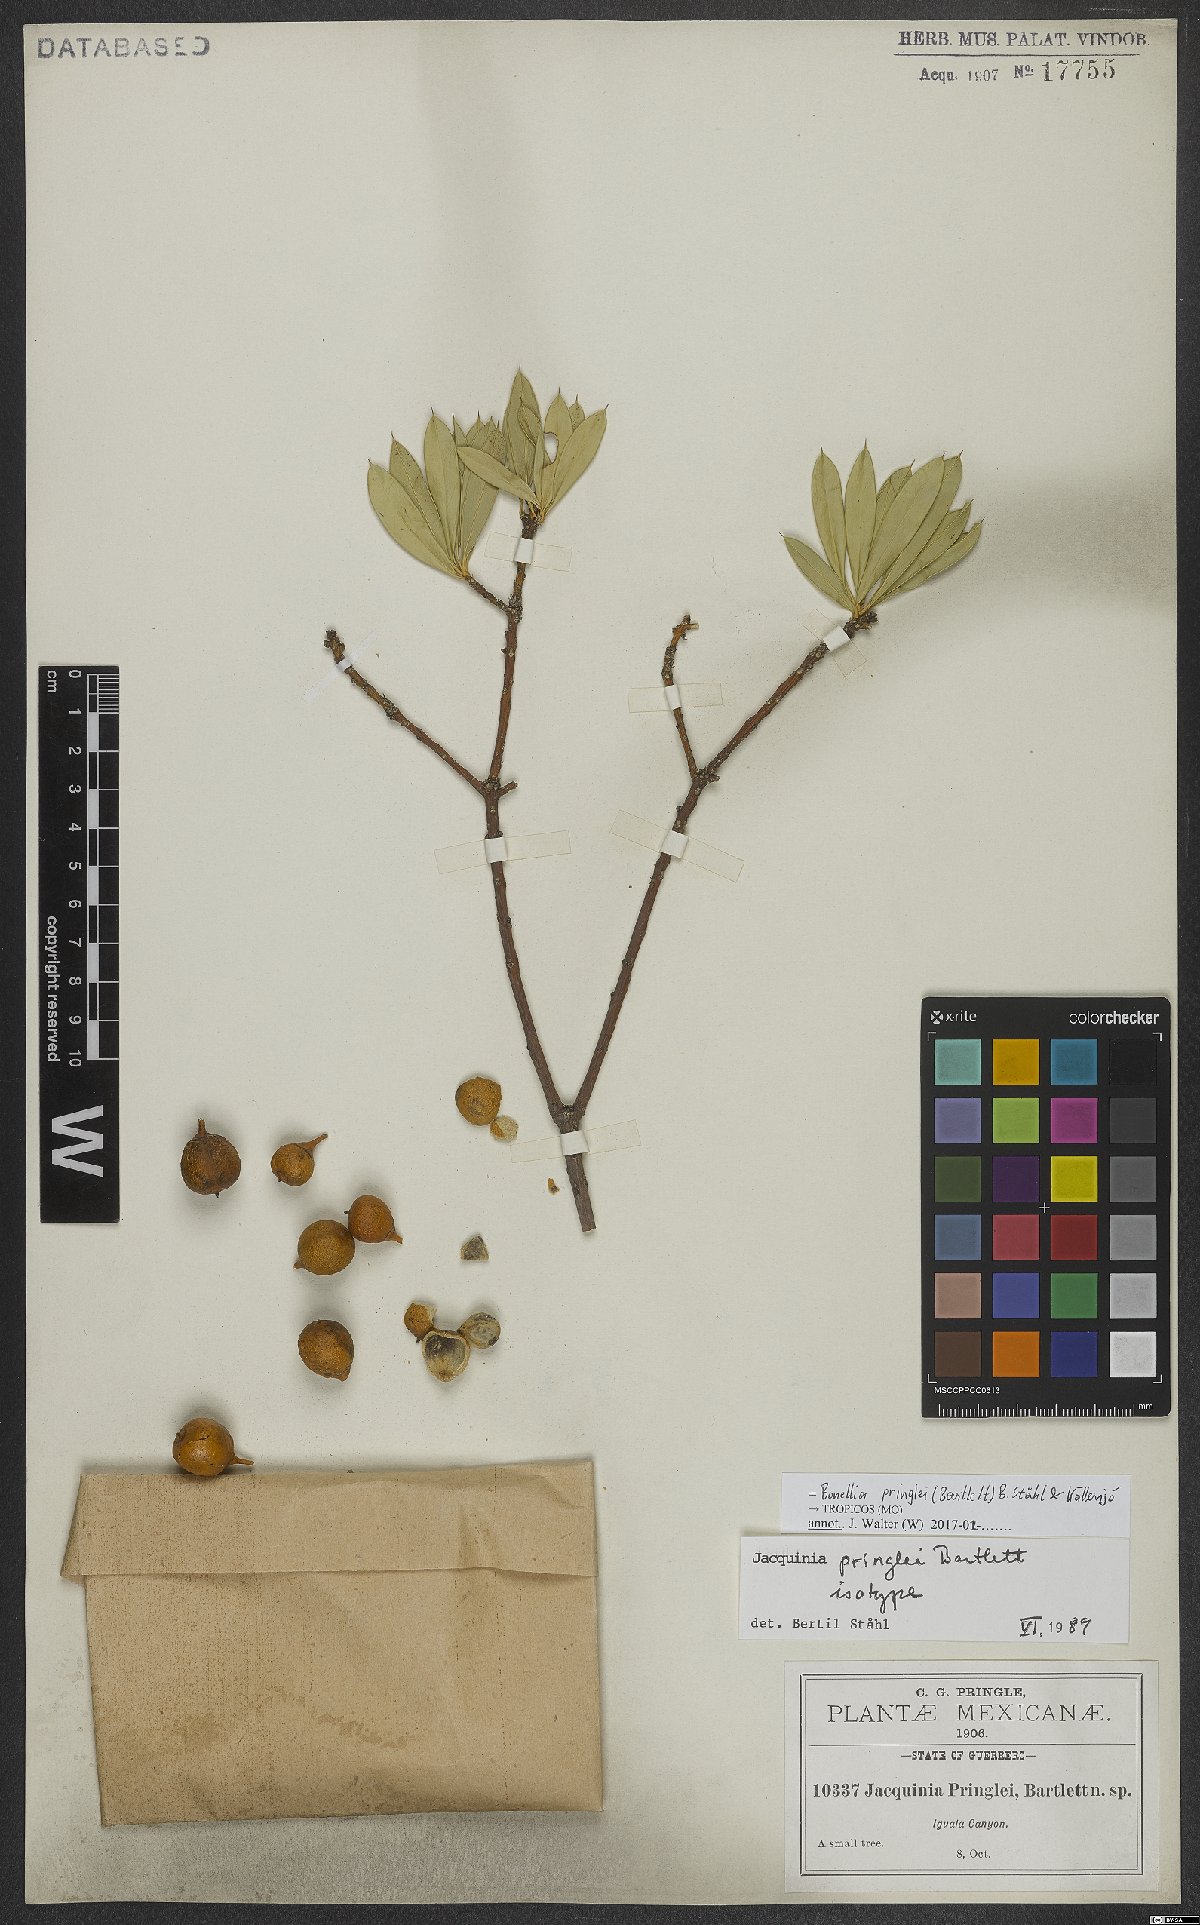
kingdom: Plantae
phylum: Tracheophyta
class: Magnoliopsida
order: Ericales
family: Primulaceae
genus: Bonellia
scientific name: Bonellia pringlei
